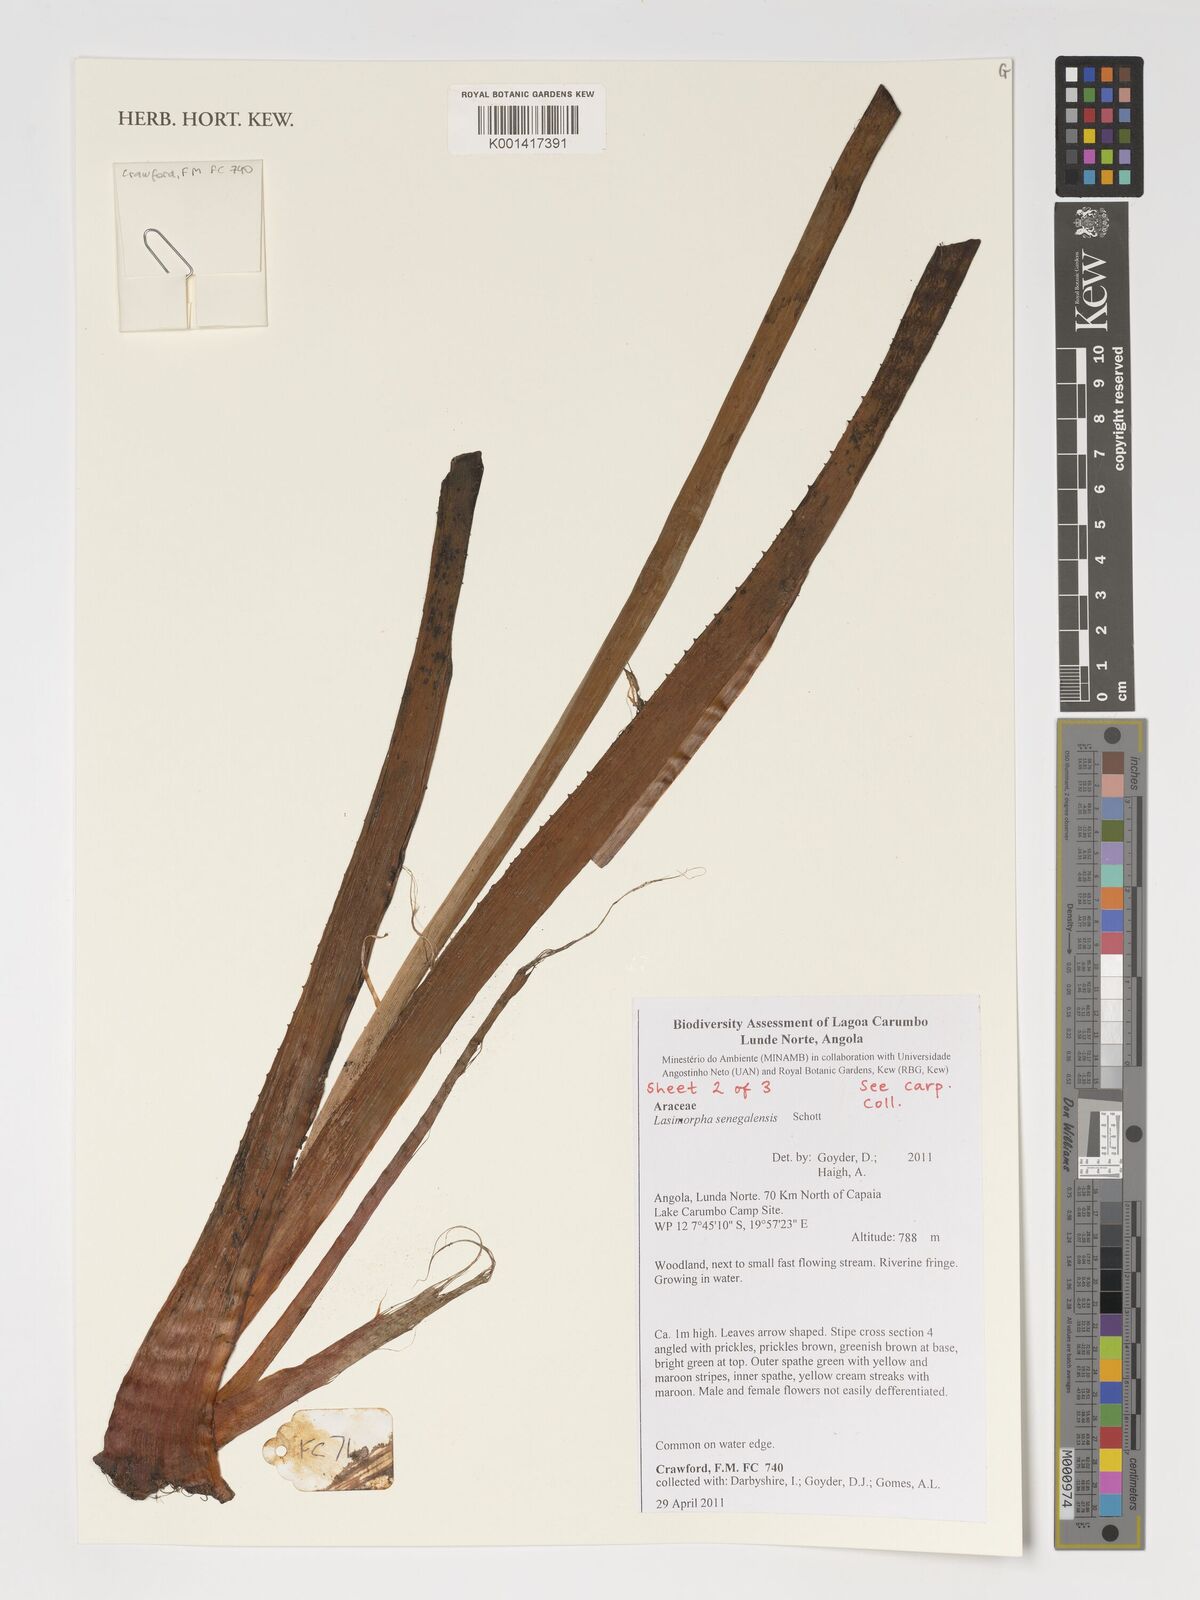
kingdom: Plantae
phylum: Tracheophyta
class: Liliopsida
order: Alismatales
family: Araceae
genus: Lasimorpha
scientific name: Lasimorpha senegalensis
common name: Swamp arum
